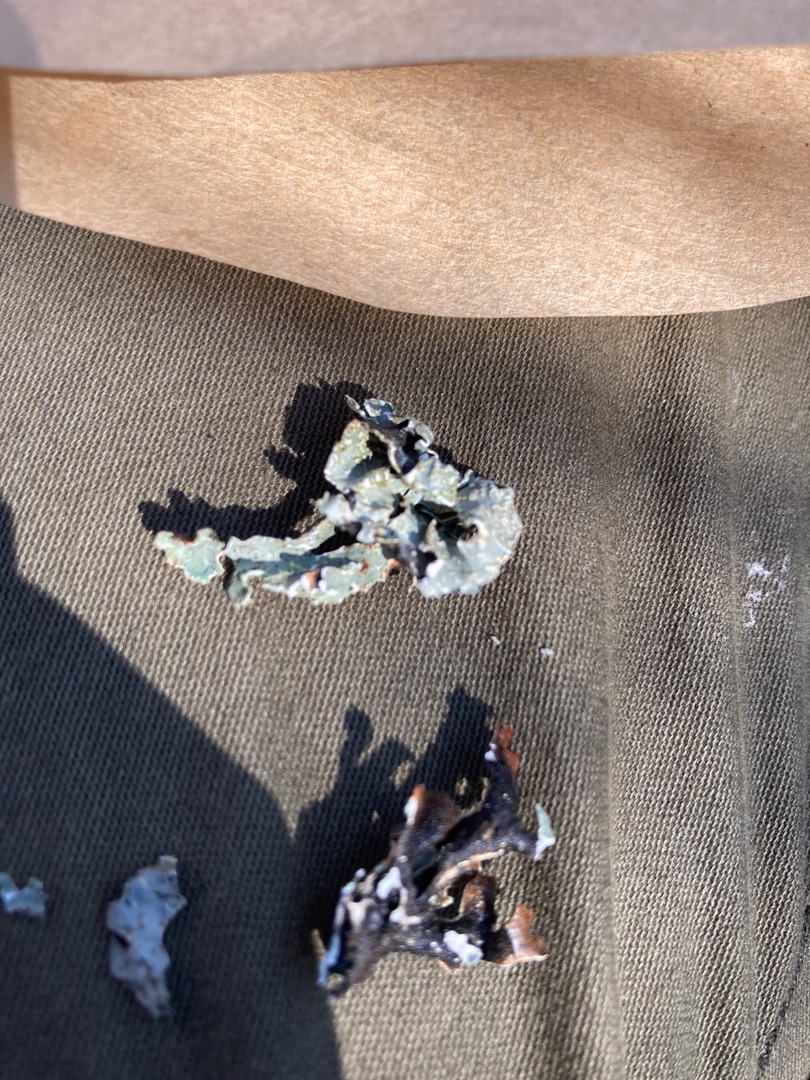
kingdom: Fungi
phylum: Ascomycota
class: Lecanoromycetes
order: Lecanorales
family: Parmeliaceae
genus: Parmelia
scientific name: Parmelia sulcata
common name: Rynket skållav
